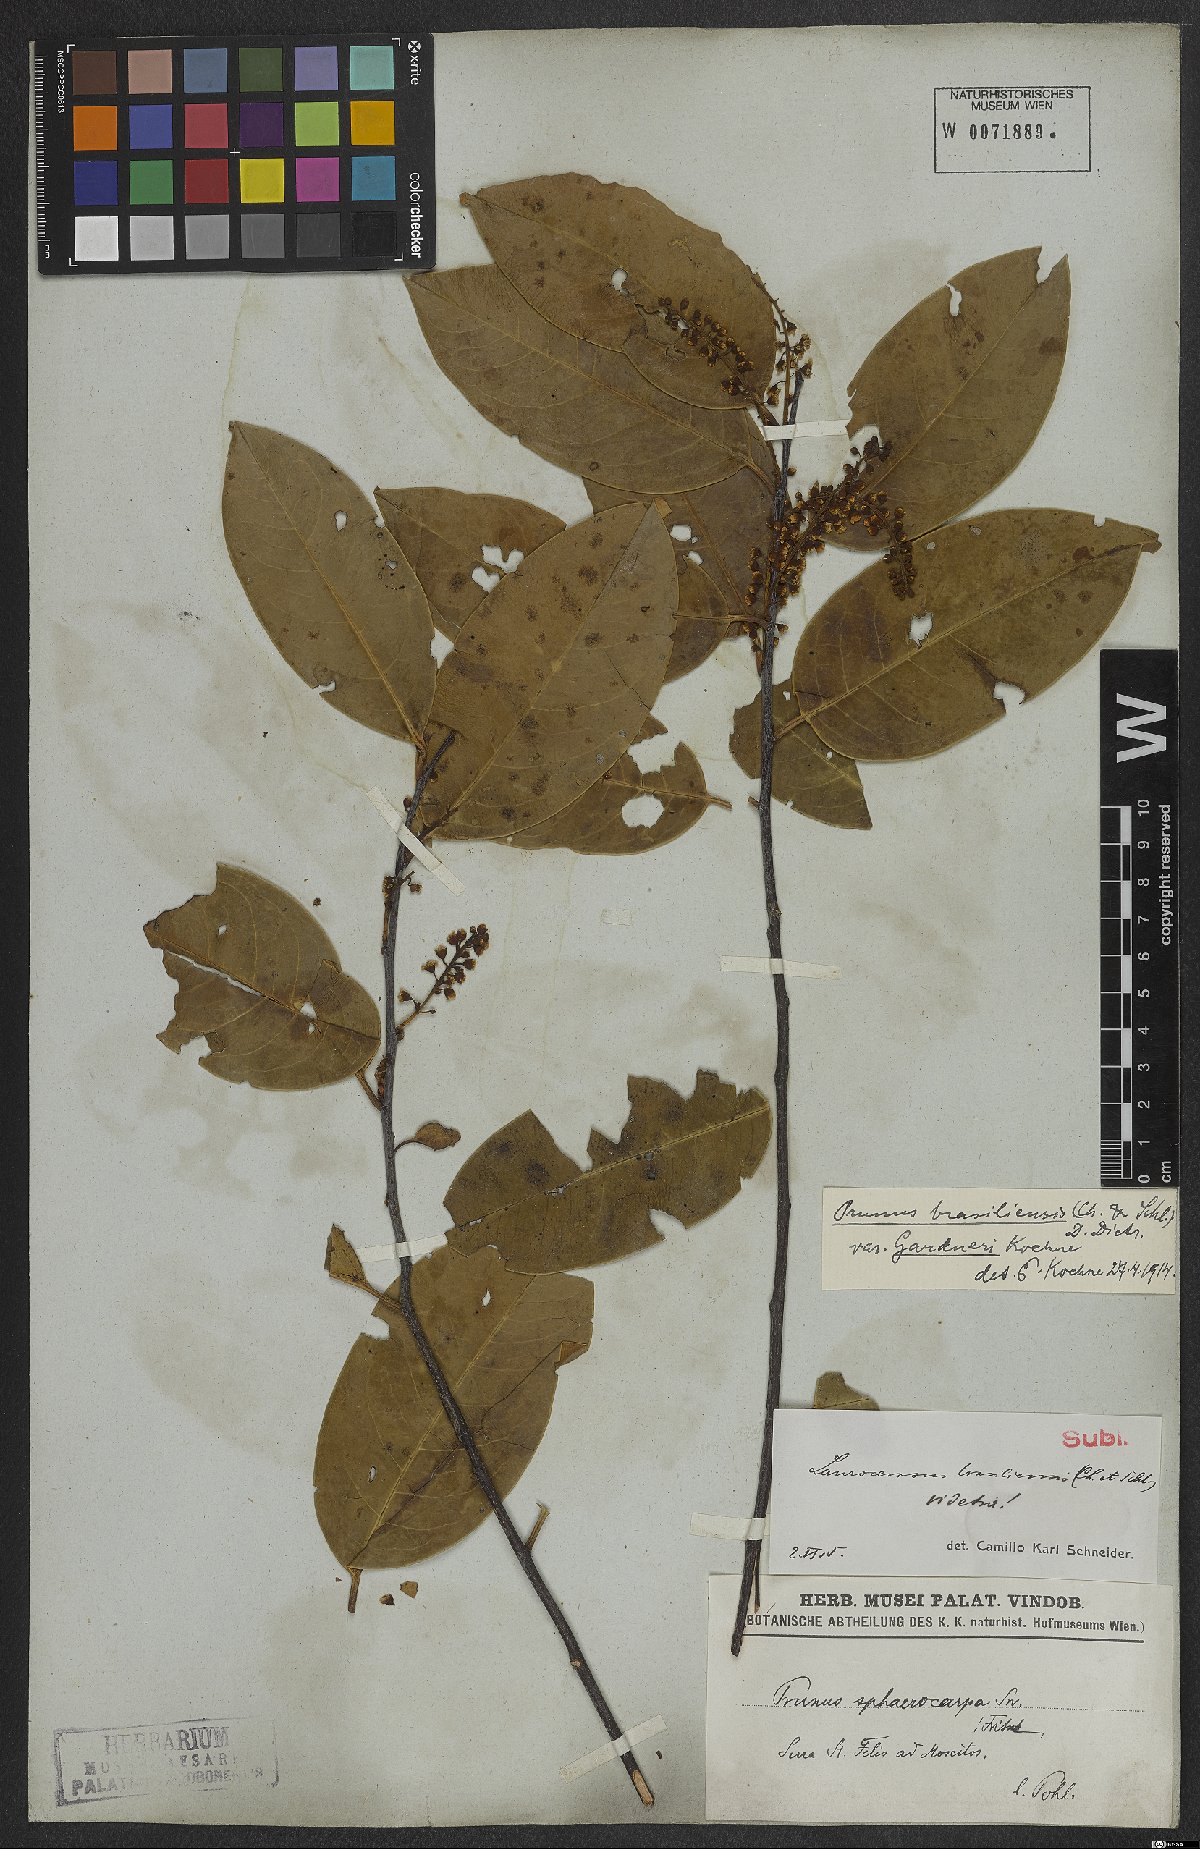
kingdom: Plantae
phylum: Tracheophyta
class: Magnoliopsida
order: Rosales
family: Rosaceae
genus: Prunus
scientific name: Prunus brasiliensis
